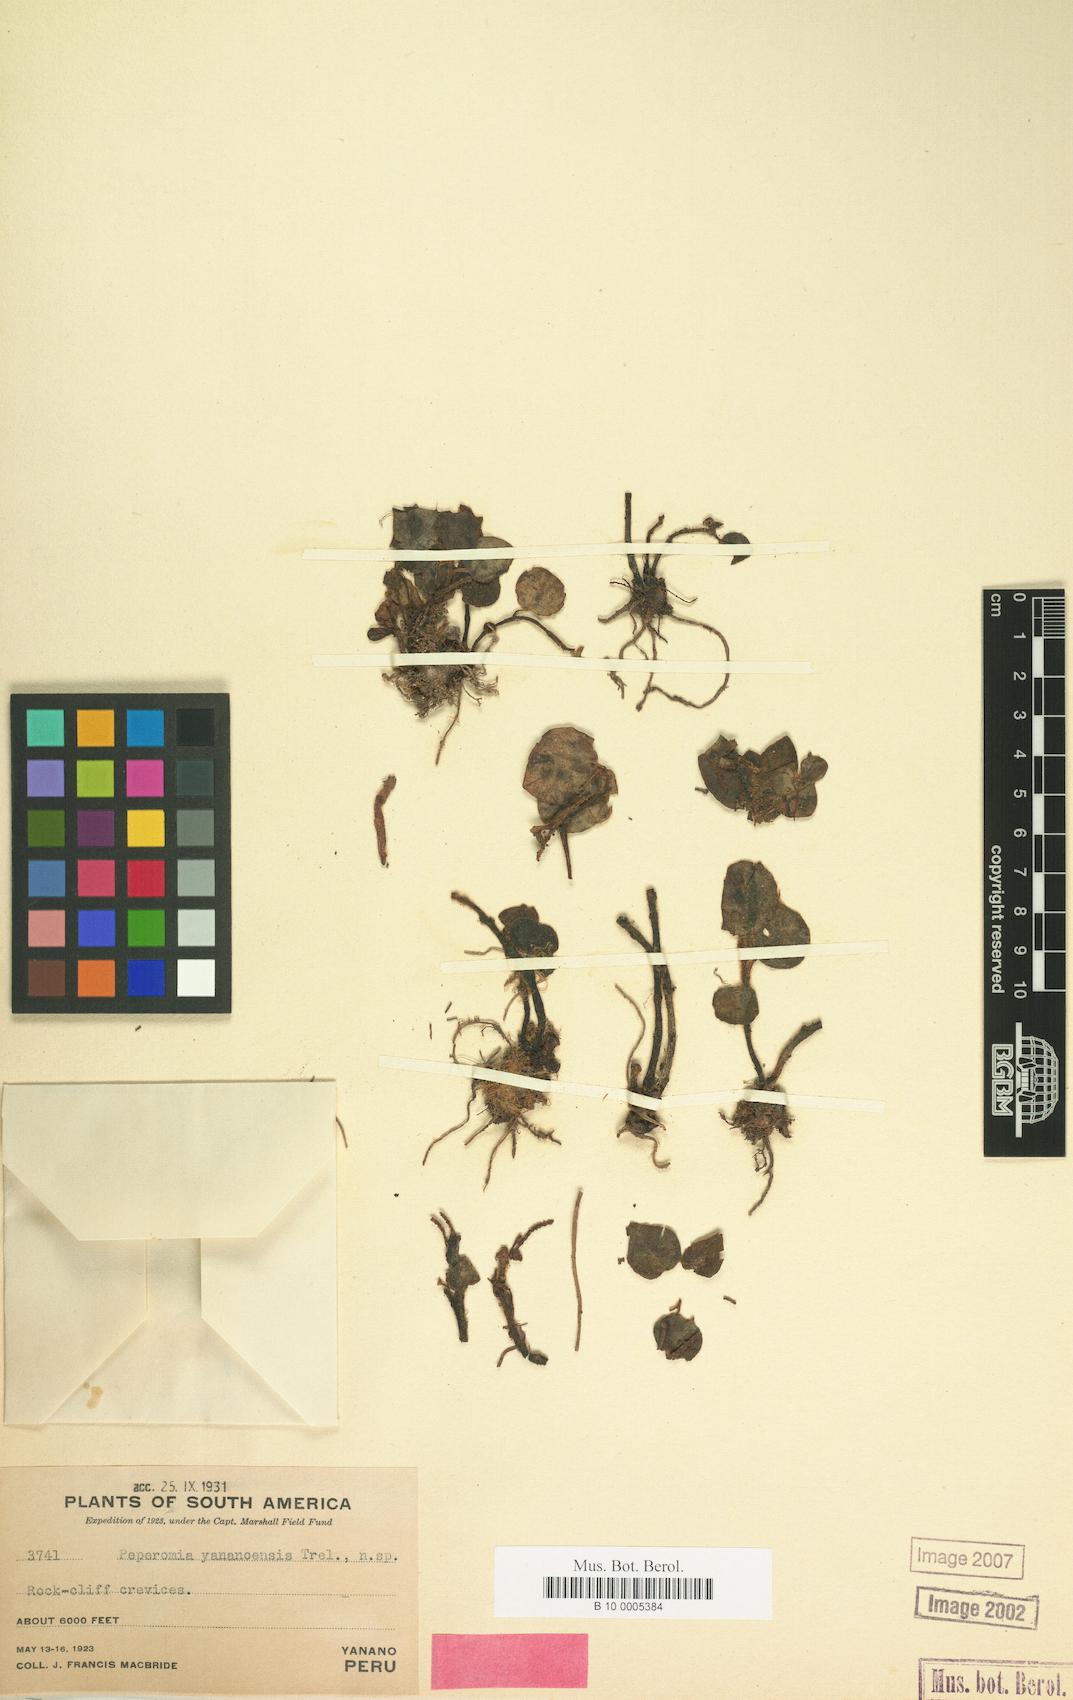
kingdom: Plantae
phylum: Tracheophyta
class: Magnoliopsida
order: Piperales
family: Piperaceae
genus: Peperomia
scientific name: Peperomia yananoensis
